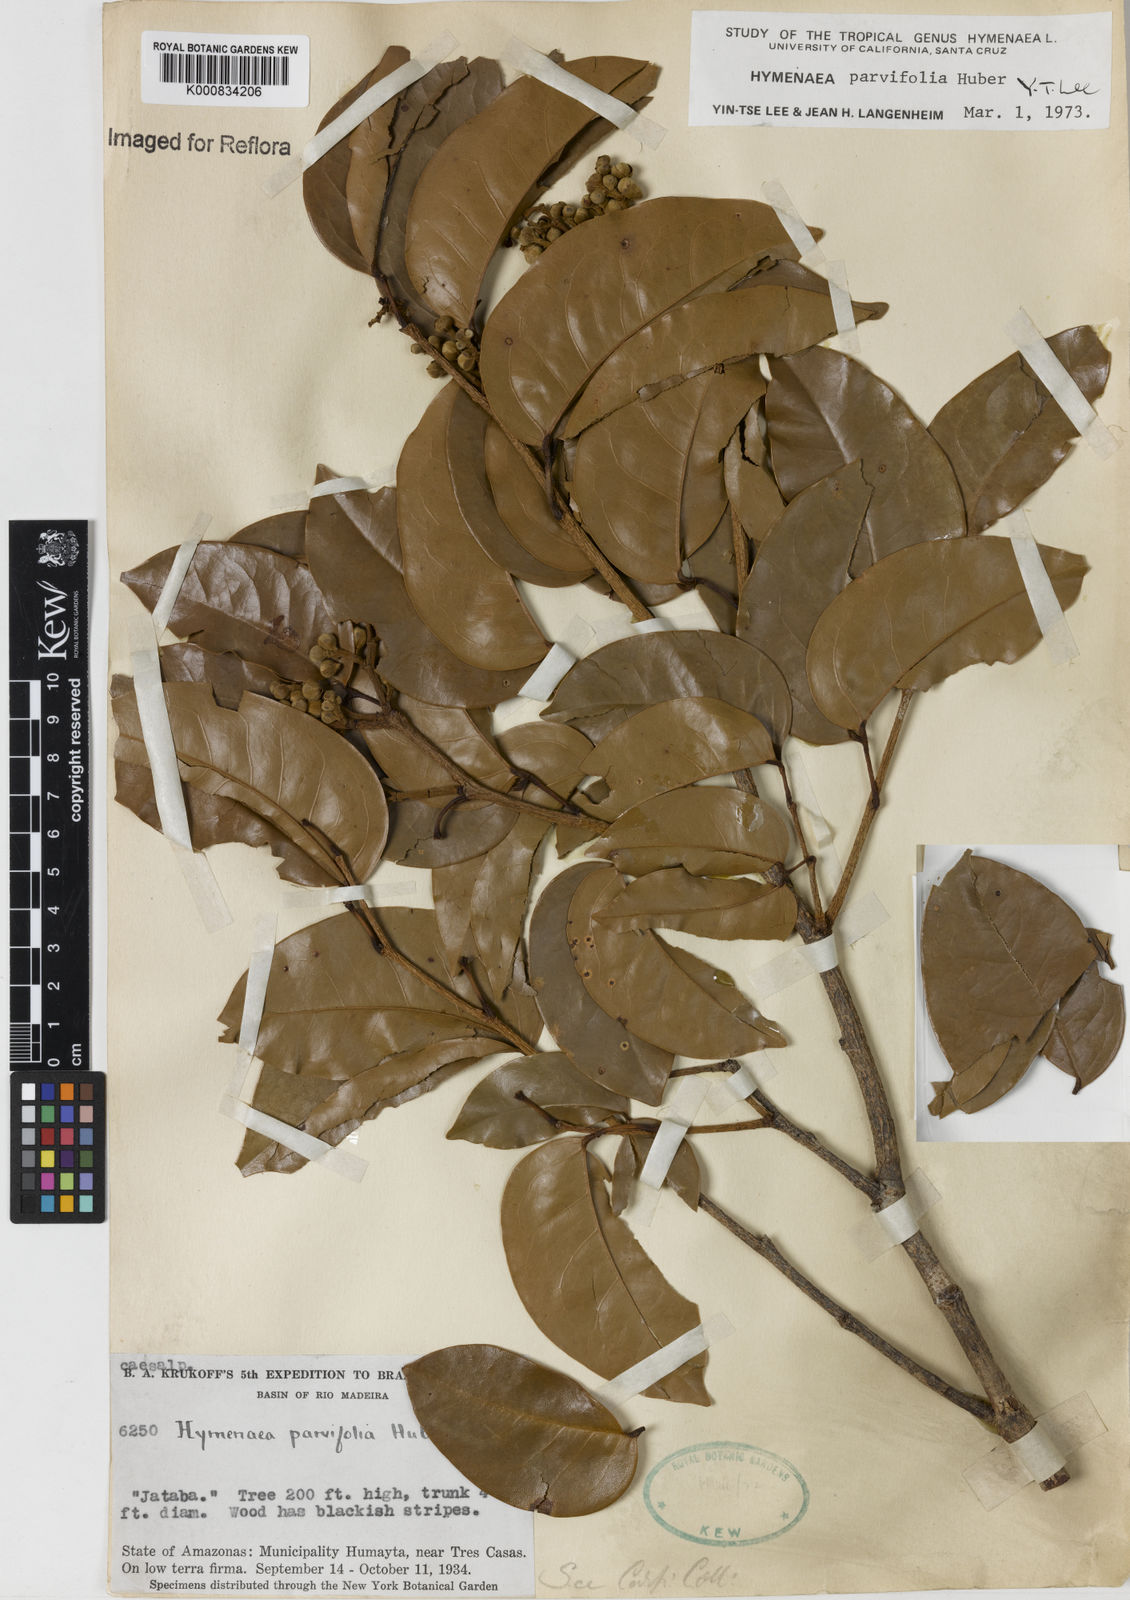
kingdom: Plantae
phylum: Tracheophyta
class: Magnoliopsida
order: Fabales
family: Fabaceae
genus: Hymenaea
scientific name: Hymenaea parvifolia
